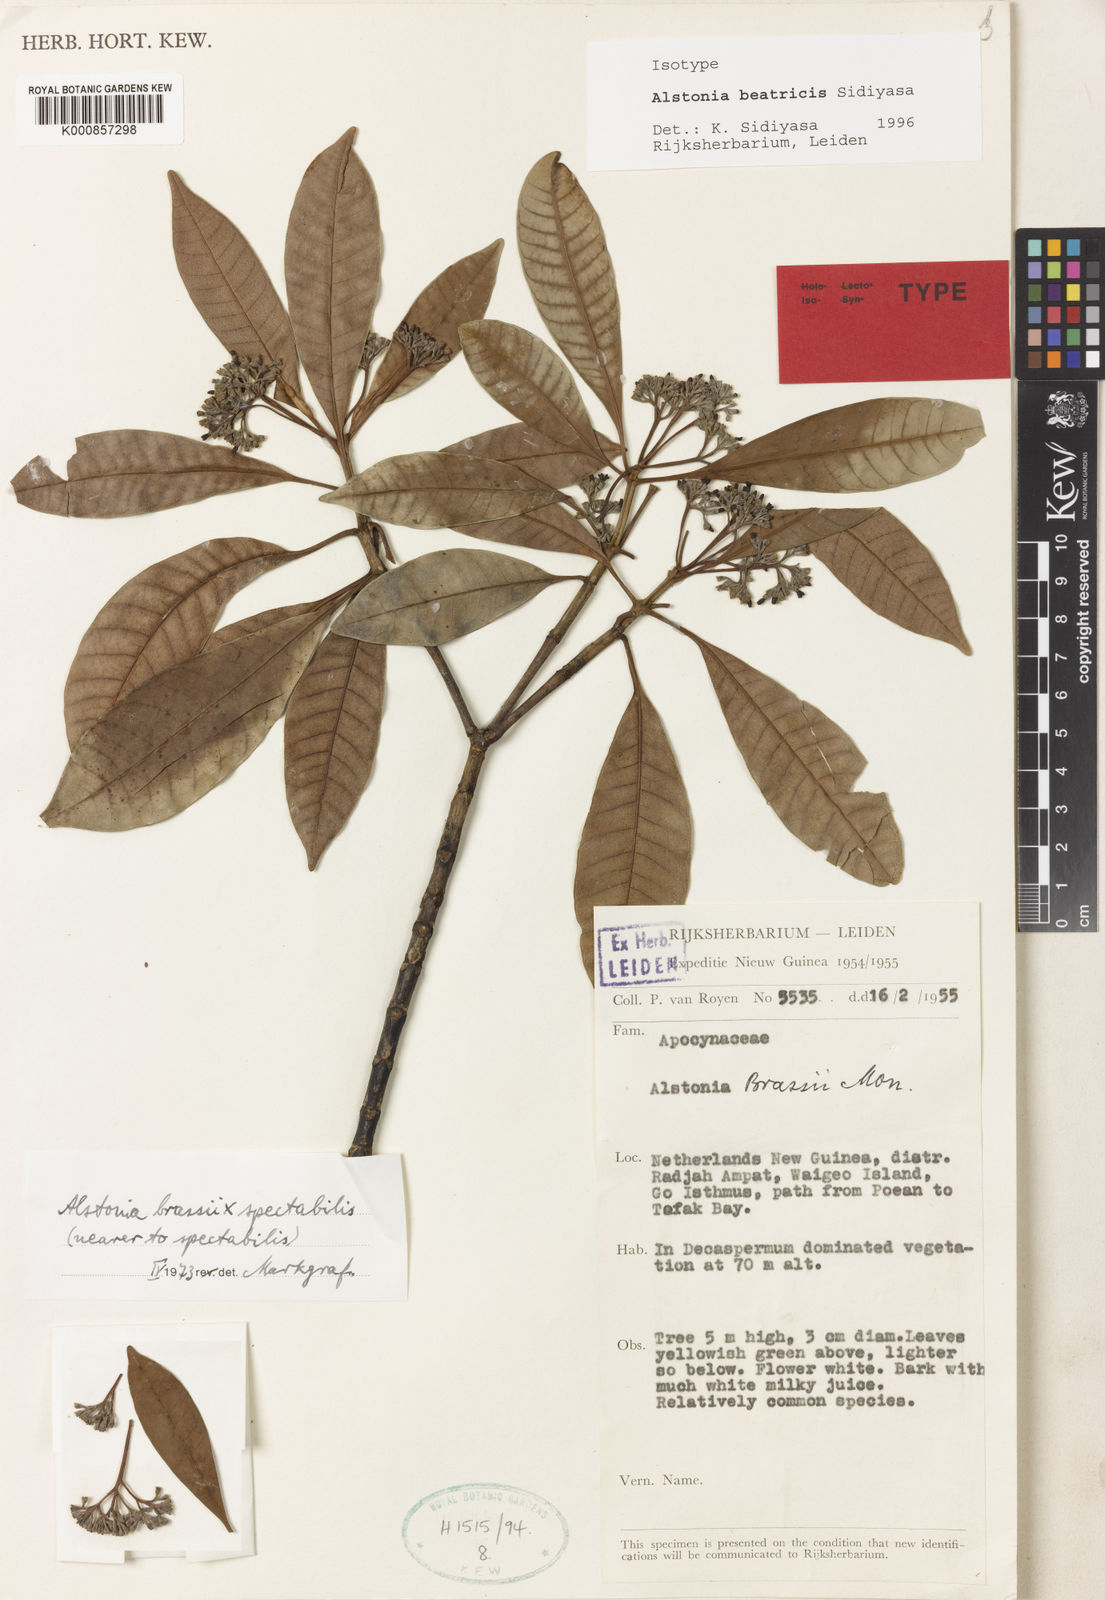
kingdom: Plantae
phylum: Tracheophyta
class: Magnoliopsida
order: Gentianales
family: Apocynaceae
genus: Alstonia
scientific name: Alstonia beatricis
